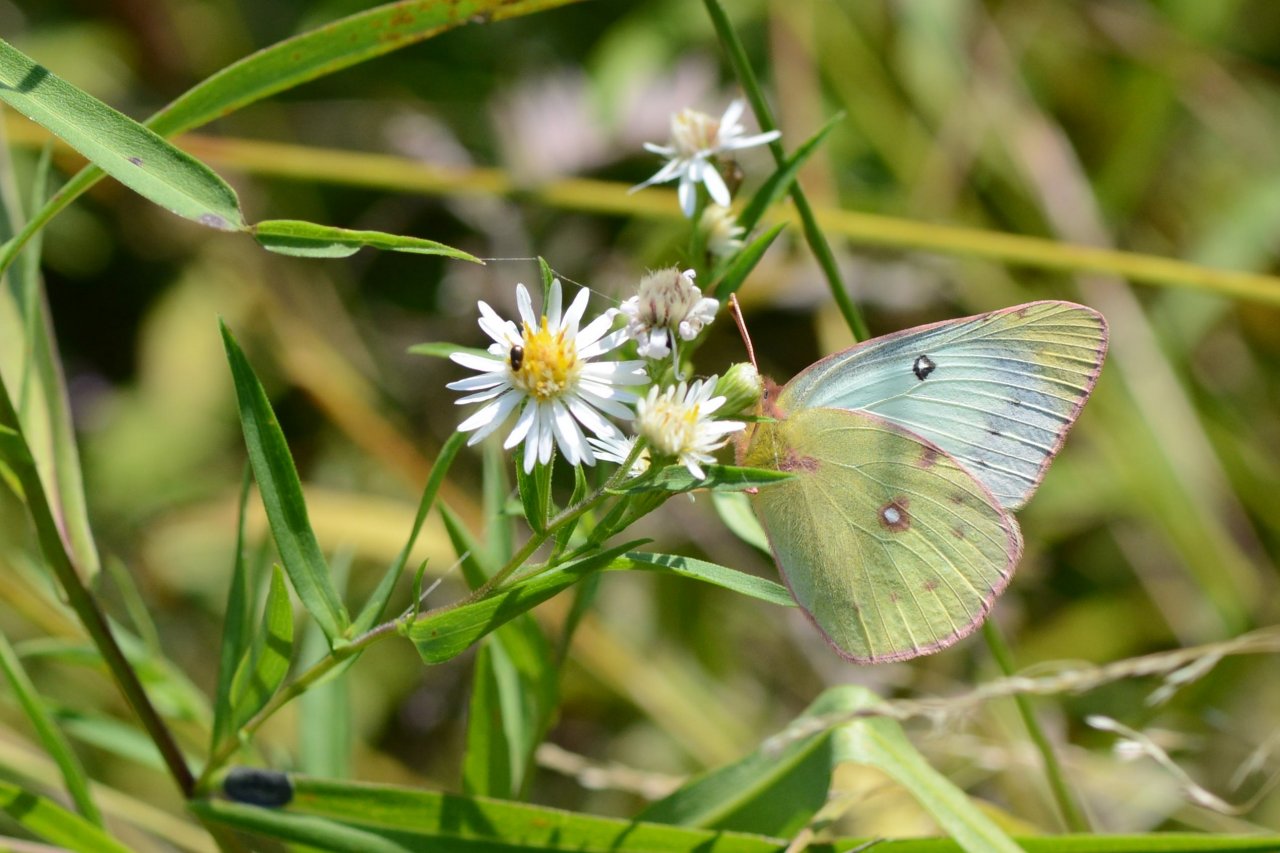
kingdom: Animalia
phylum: Arthropoda
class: Insecta
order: Lepidoptera
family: Pieridae
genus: Colias
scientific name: Colias philodice
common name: Clouded Sulphur
